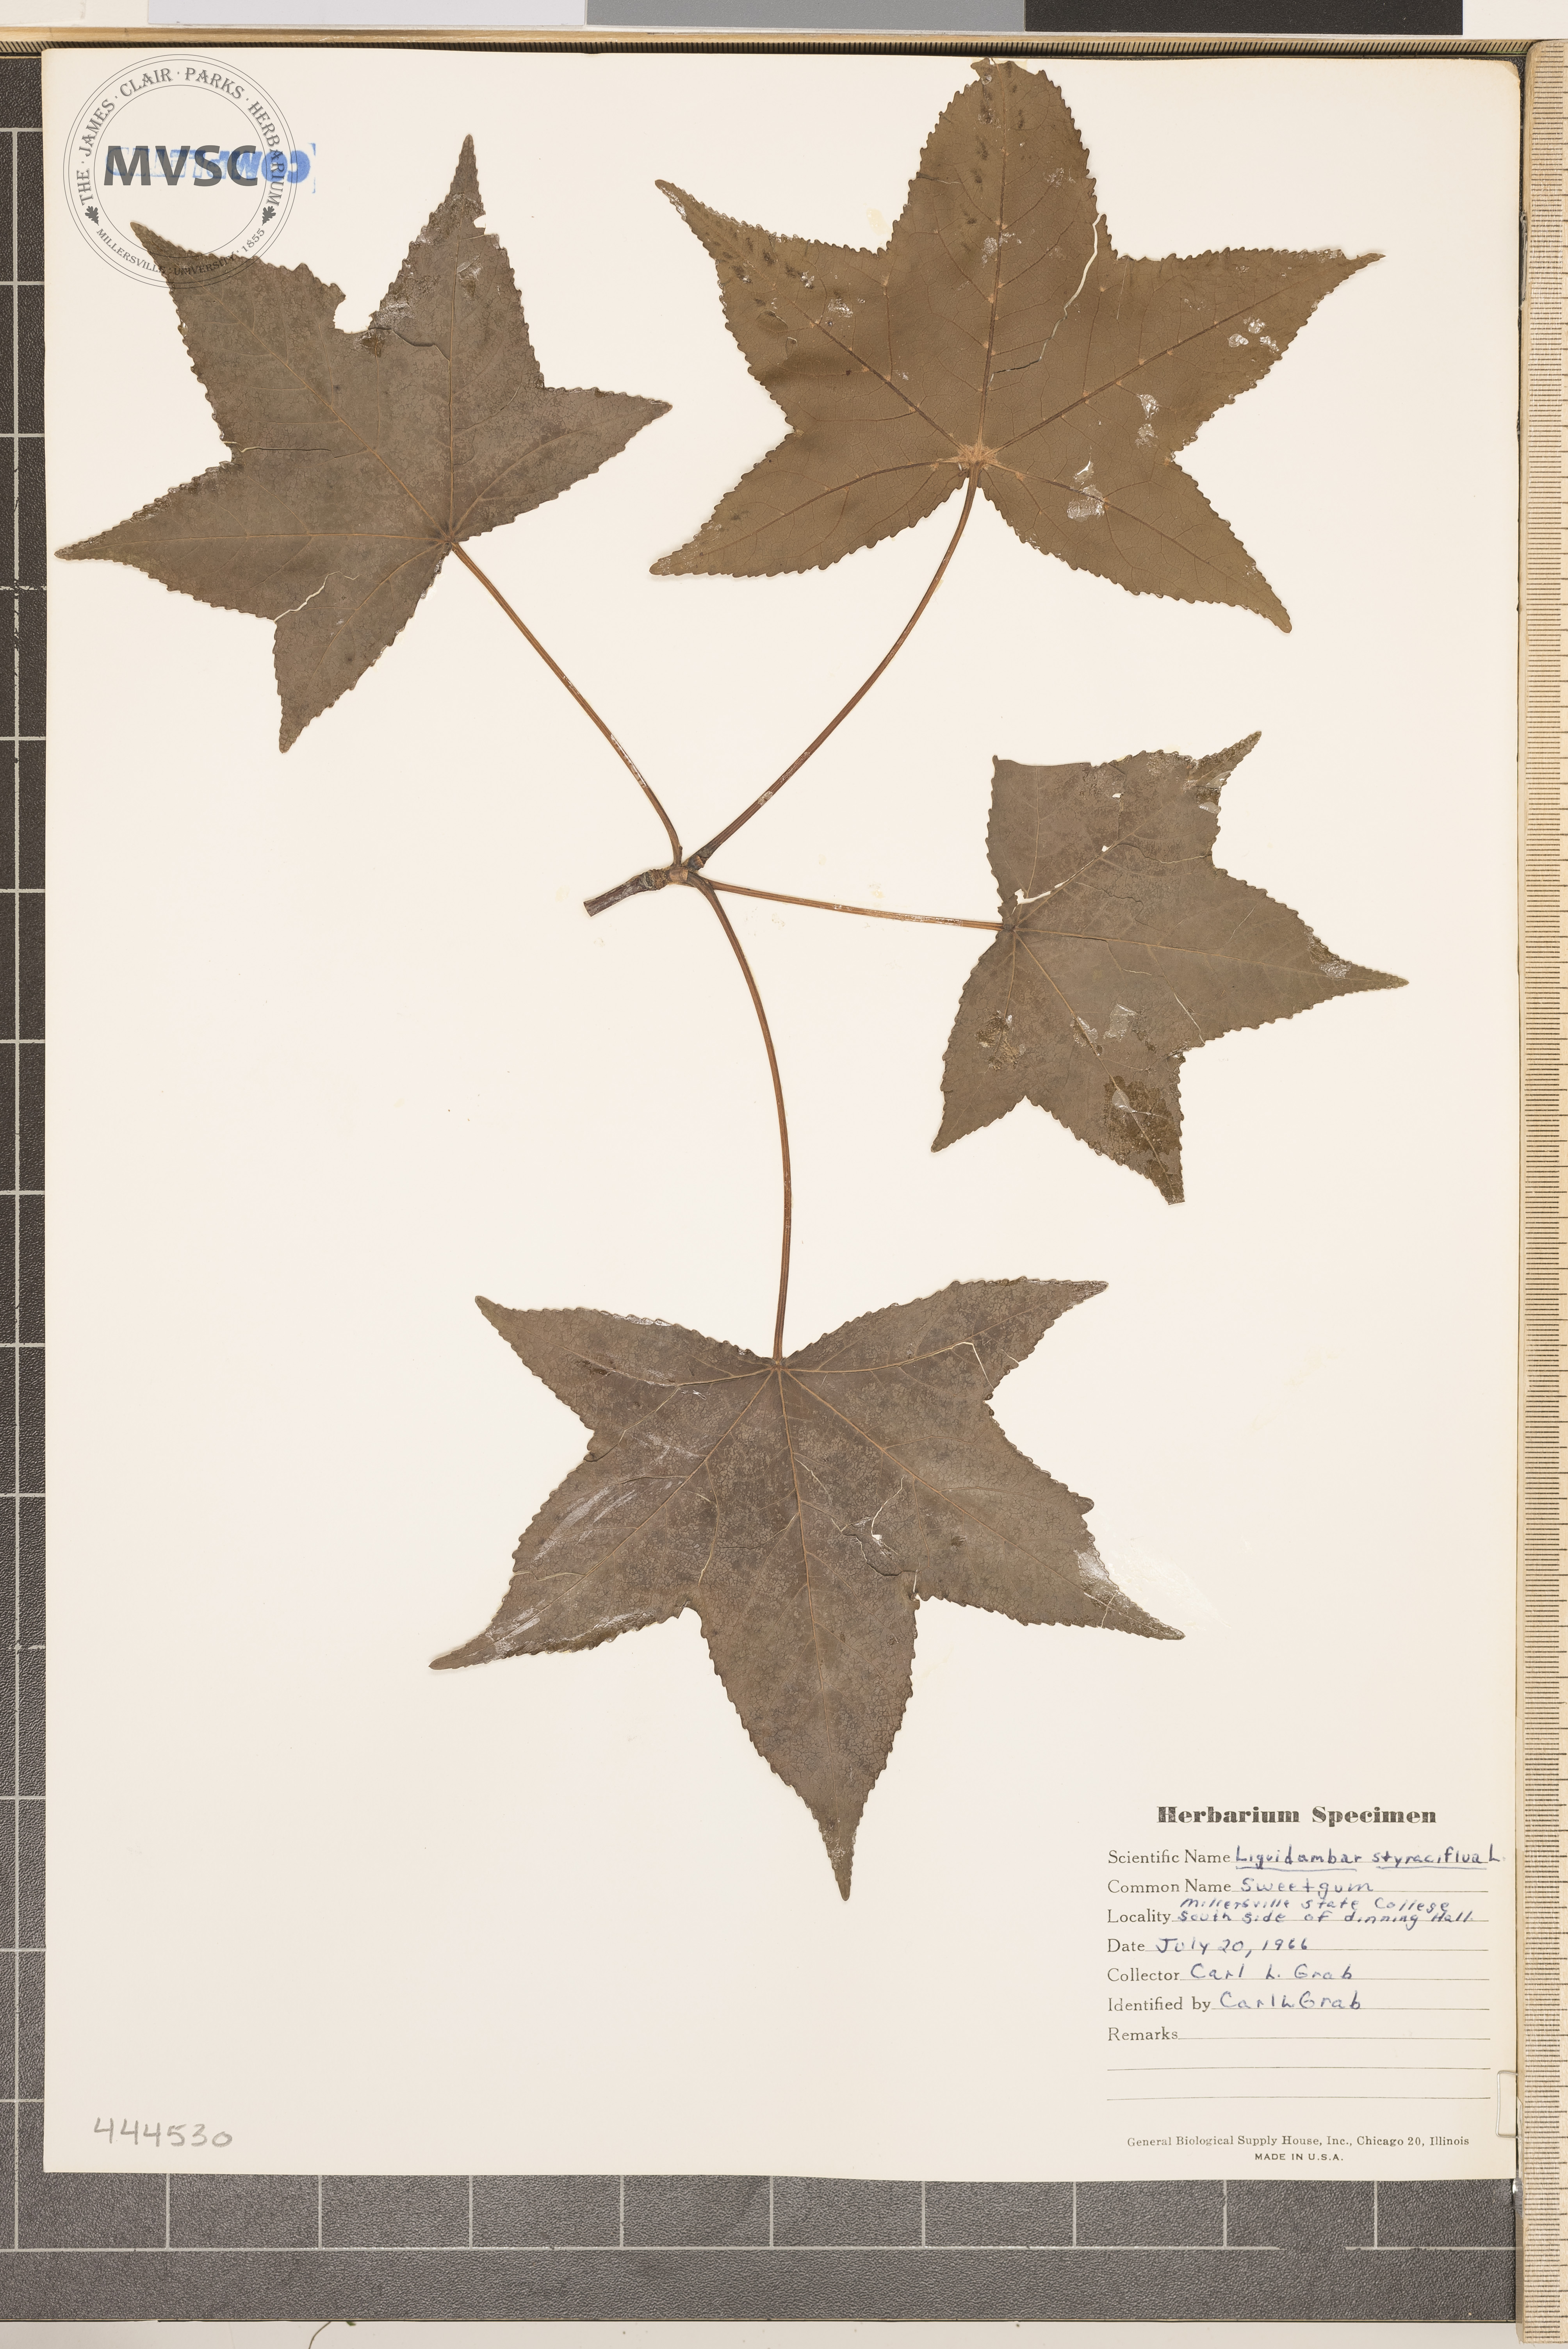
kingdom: Plantae
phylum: Tracheophyta
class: Magnoliopsida
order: Saxifragales
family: Altingiaceae
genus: Liquidambar
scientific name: Liquidambar styraciflua
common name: Sweetgum
